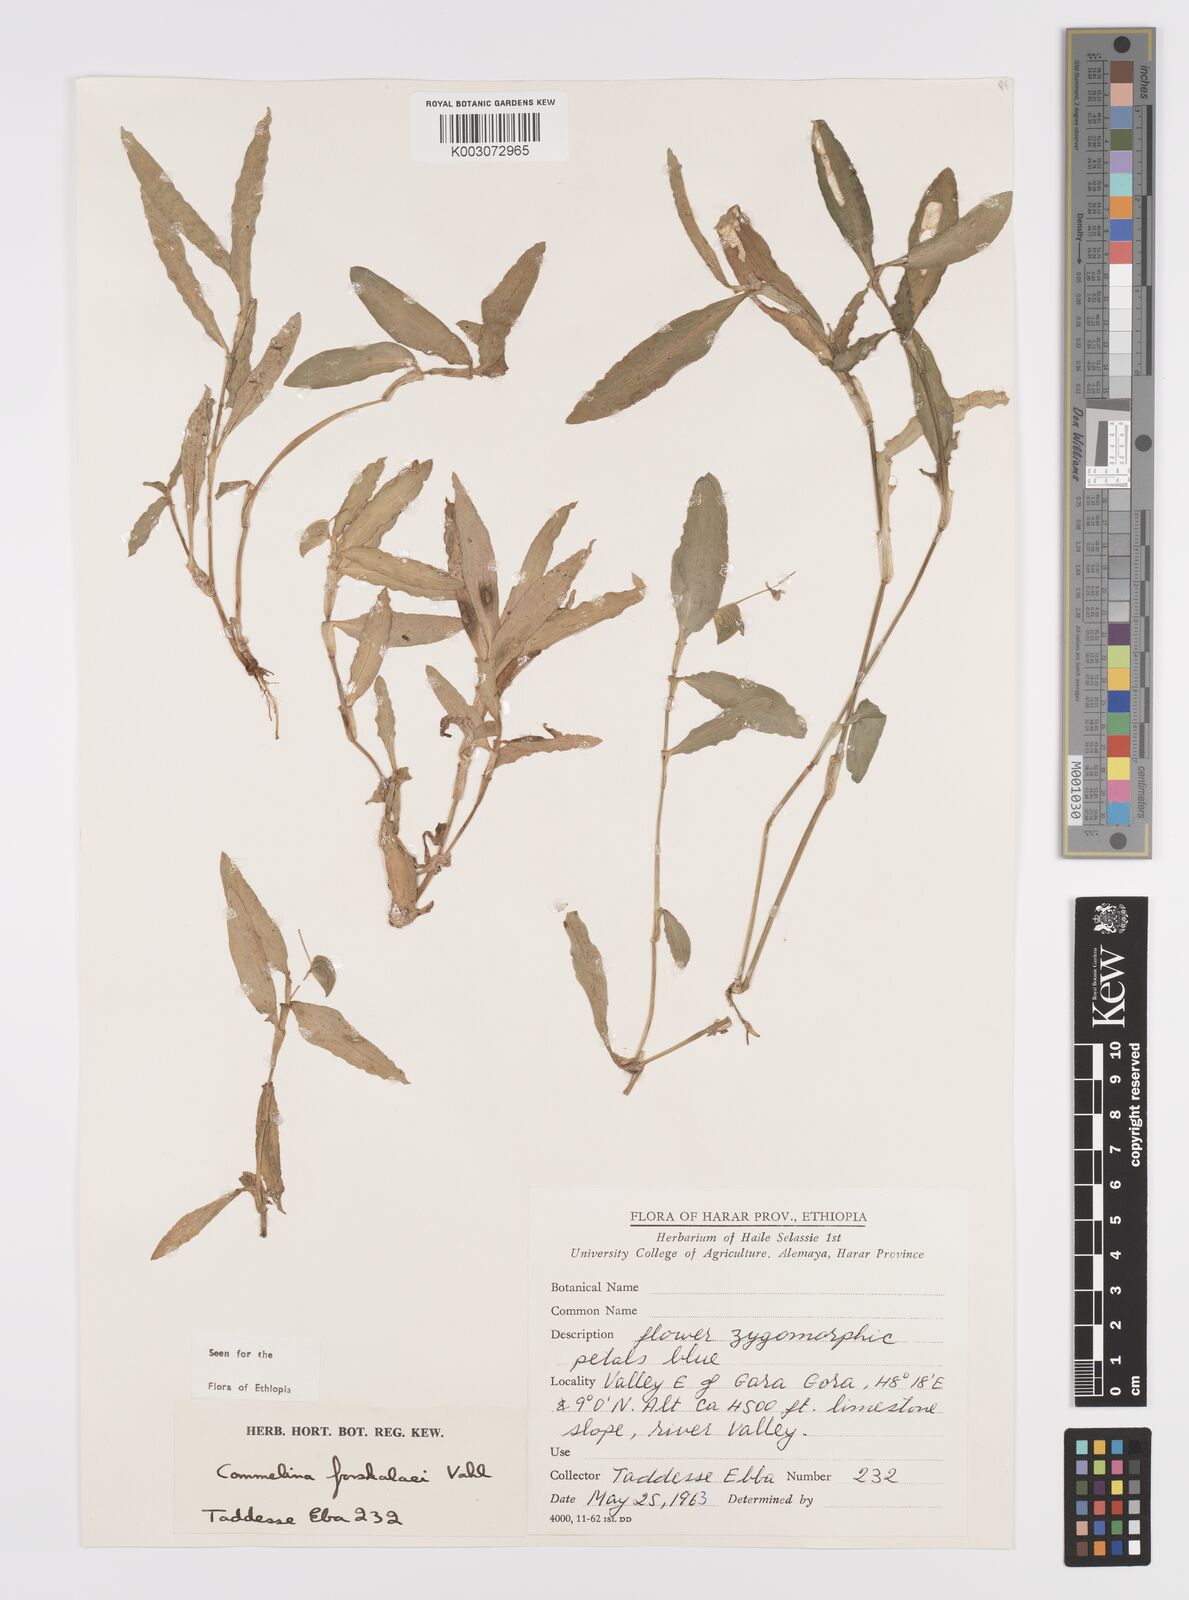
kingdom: Plantae
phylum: Tracheophyta
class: Liliopsida
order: Commelinales
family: Commelinaceae
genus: Commelina
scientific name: Commelina forskaolii
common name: Rat's ear
